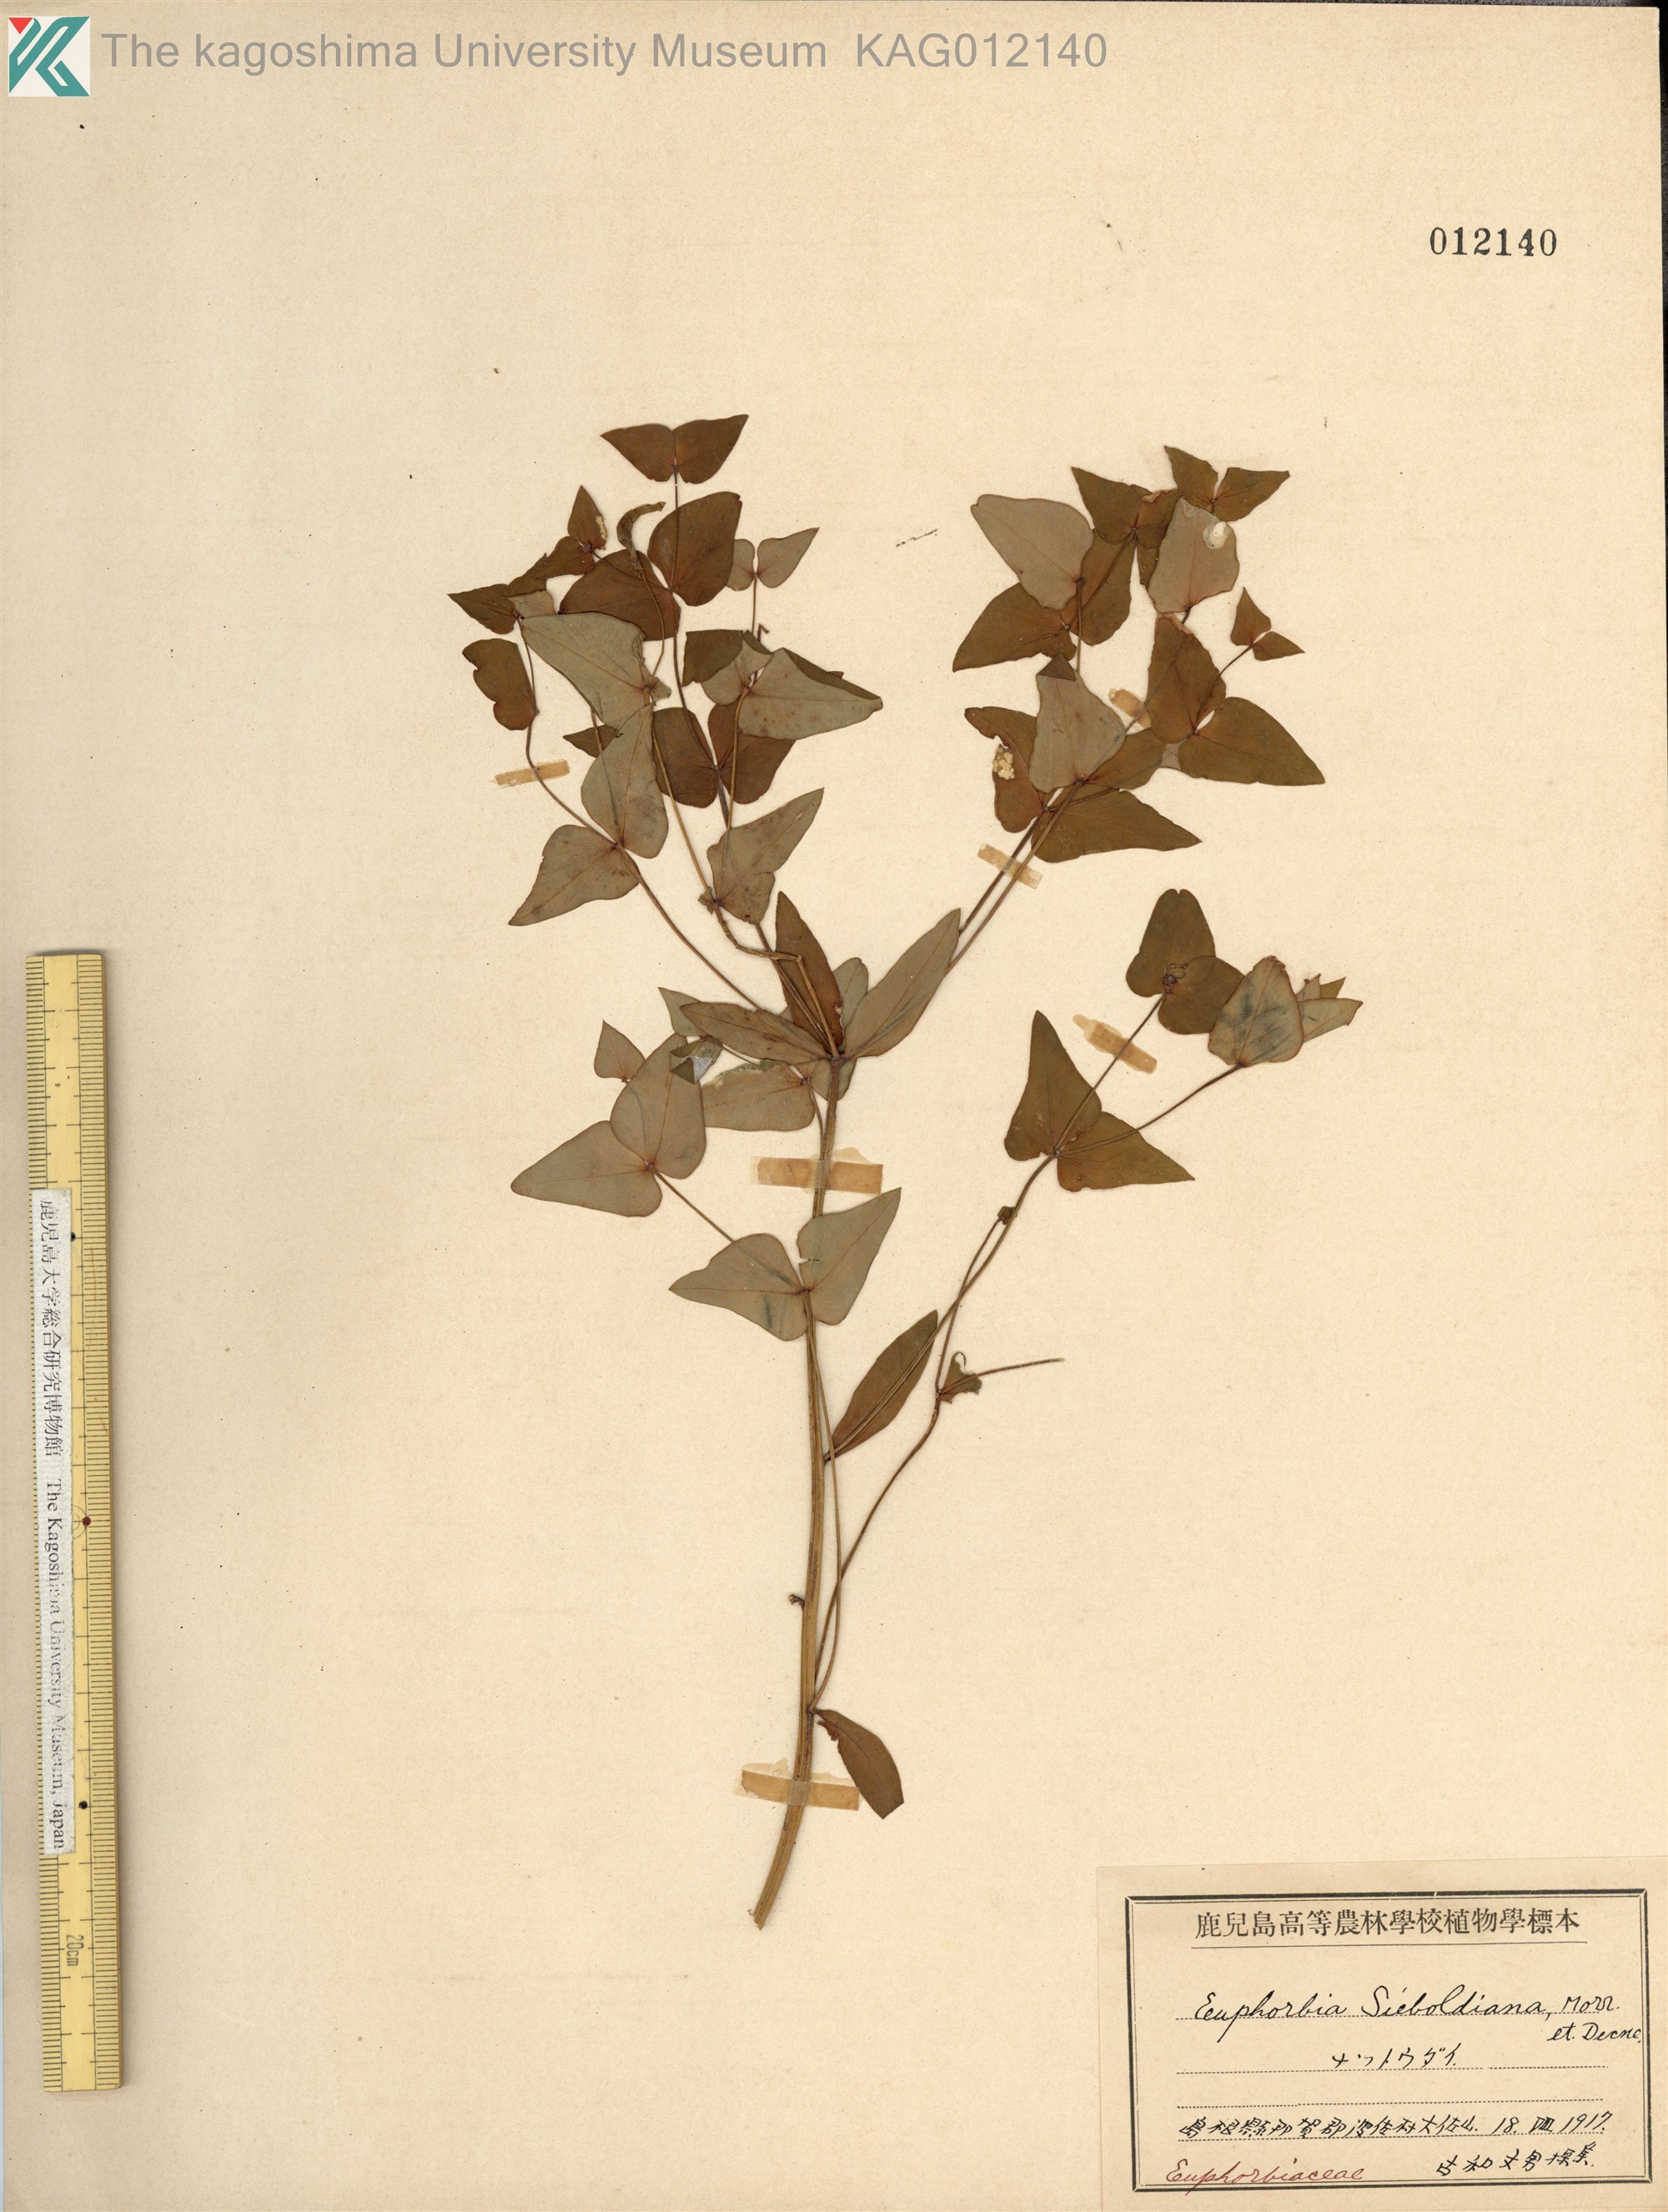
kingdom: Plantae
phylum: Tracheophyta
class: Magnoliopsida
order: Malpighiales
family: Euphorbiaceae
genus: Euphorbia
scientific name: Euphorbia sieboldiana
